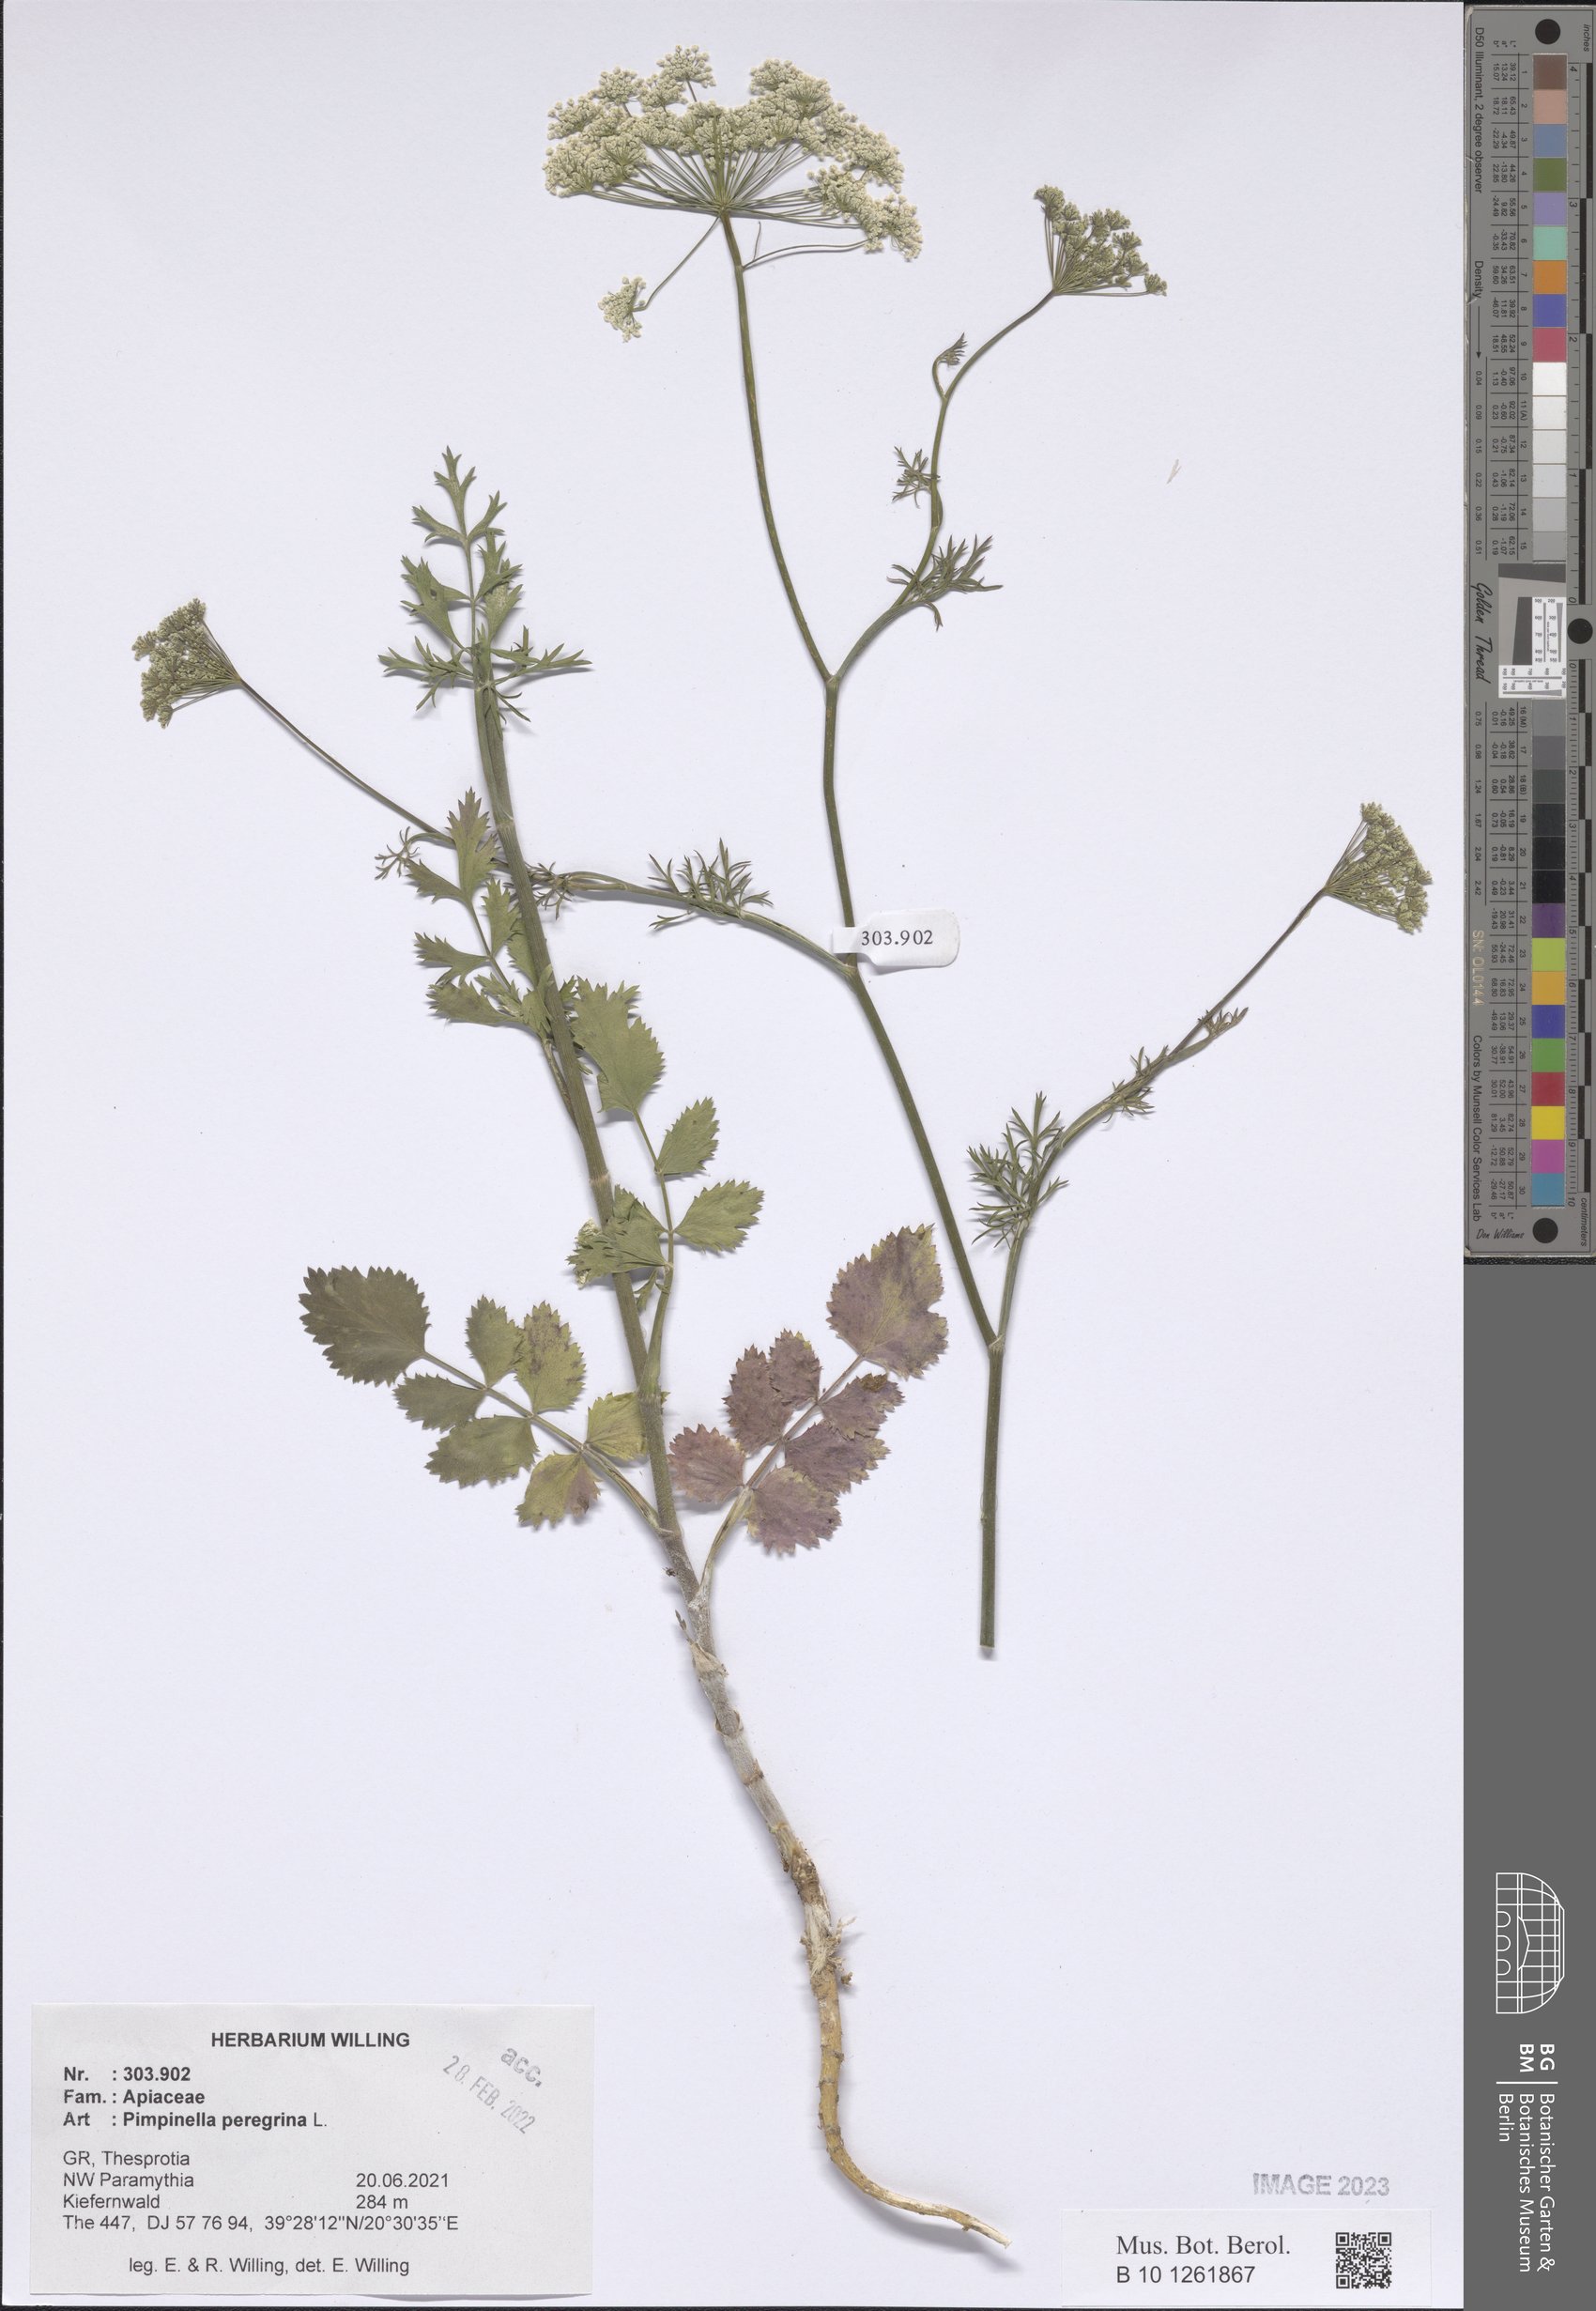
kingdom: Plantae
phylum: Tracheophyta
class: Magnoliopsida
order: Apiales
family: Apiaceae
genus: Pimpinella
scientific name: Pimpinella peregrina
